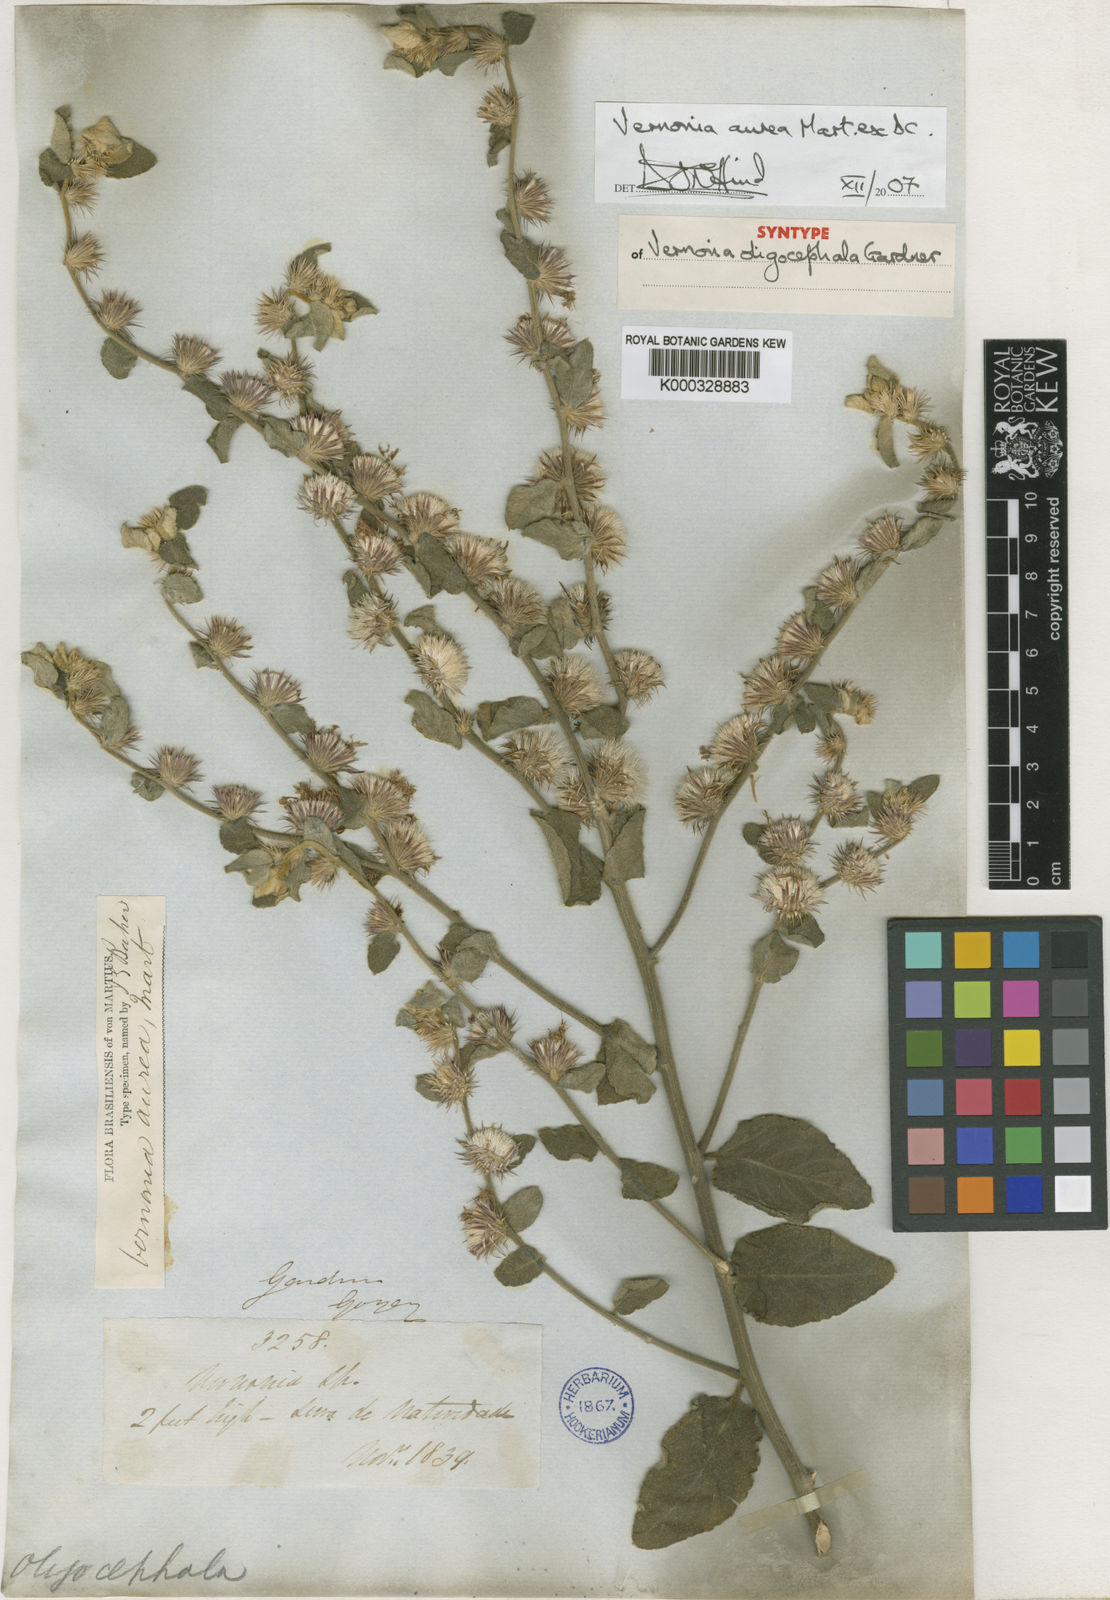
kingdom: Plantae
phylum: Tracheophyta
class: Magnoliopsida
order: Asterales
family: Asteraceae
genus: Lepidaploa
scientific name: Lepidaploa aurea
